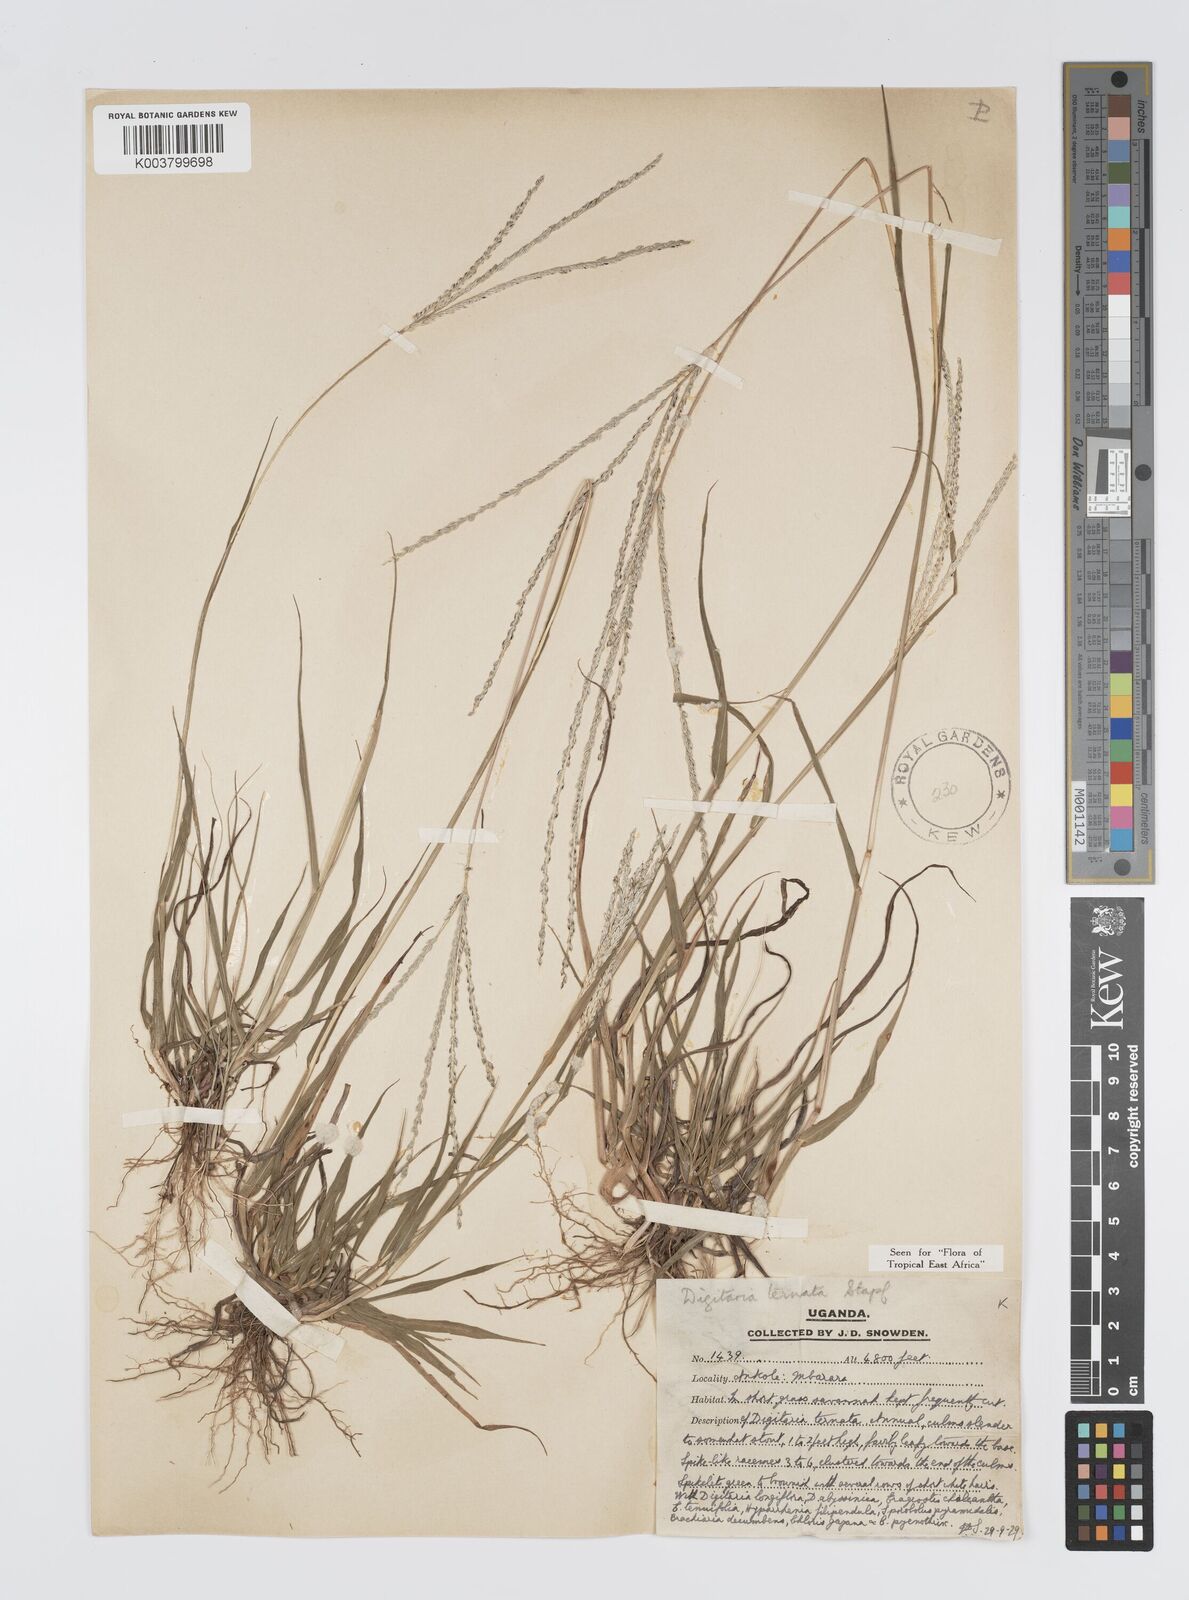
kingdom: Plantae
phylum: Tracheophyta
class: Liliopsida
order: Poales
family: Poaceae
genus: Digitaria
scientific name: Digitaria ternata
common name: Blackseed crabgrass
